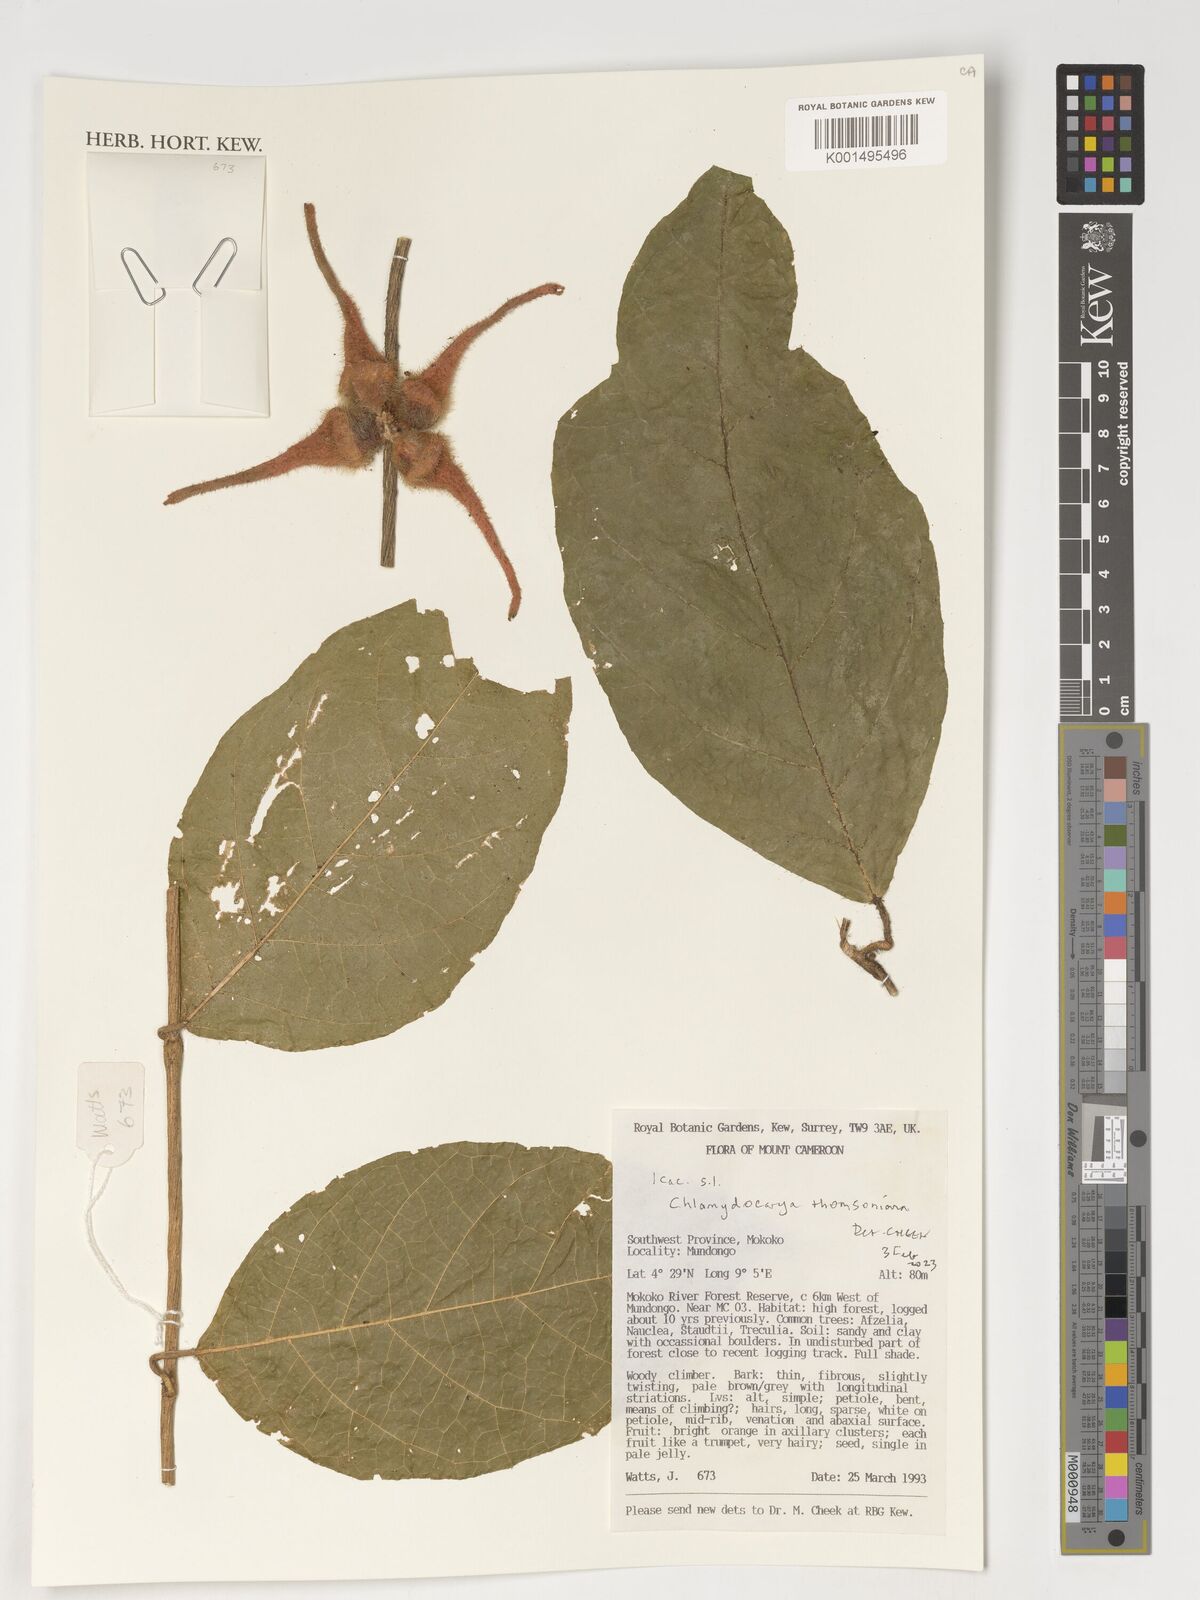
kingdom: Plantae
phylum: Tracheophyta
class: Magnoliopsida
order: Icacinales
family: Icacinaceae
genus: Pyrenacantha
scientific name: Pyrenacantha thomsoniana
